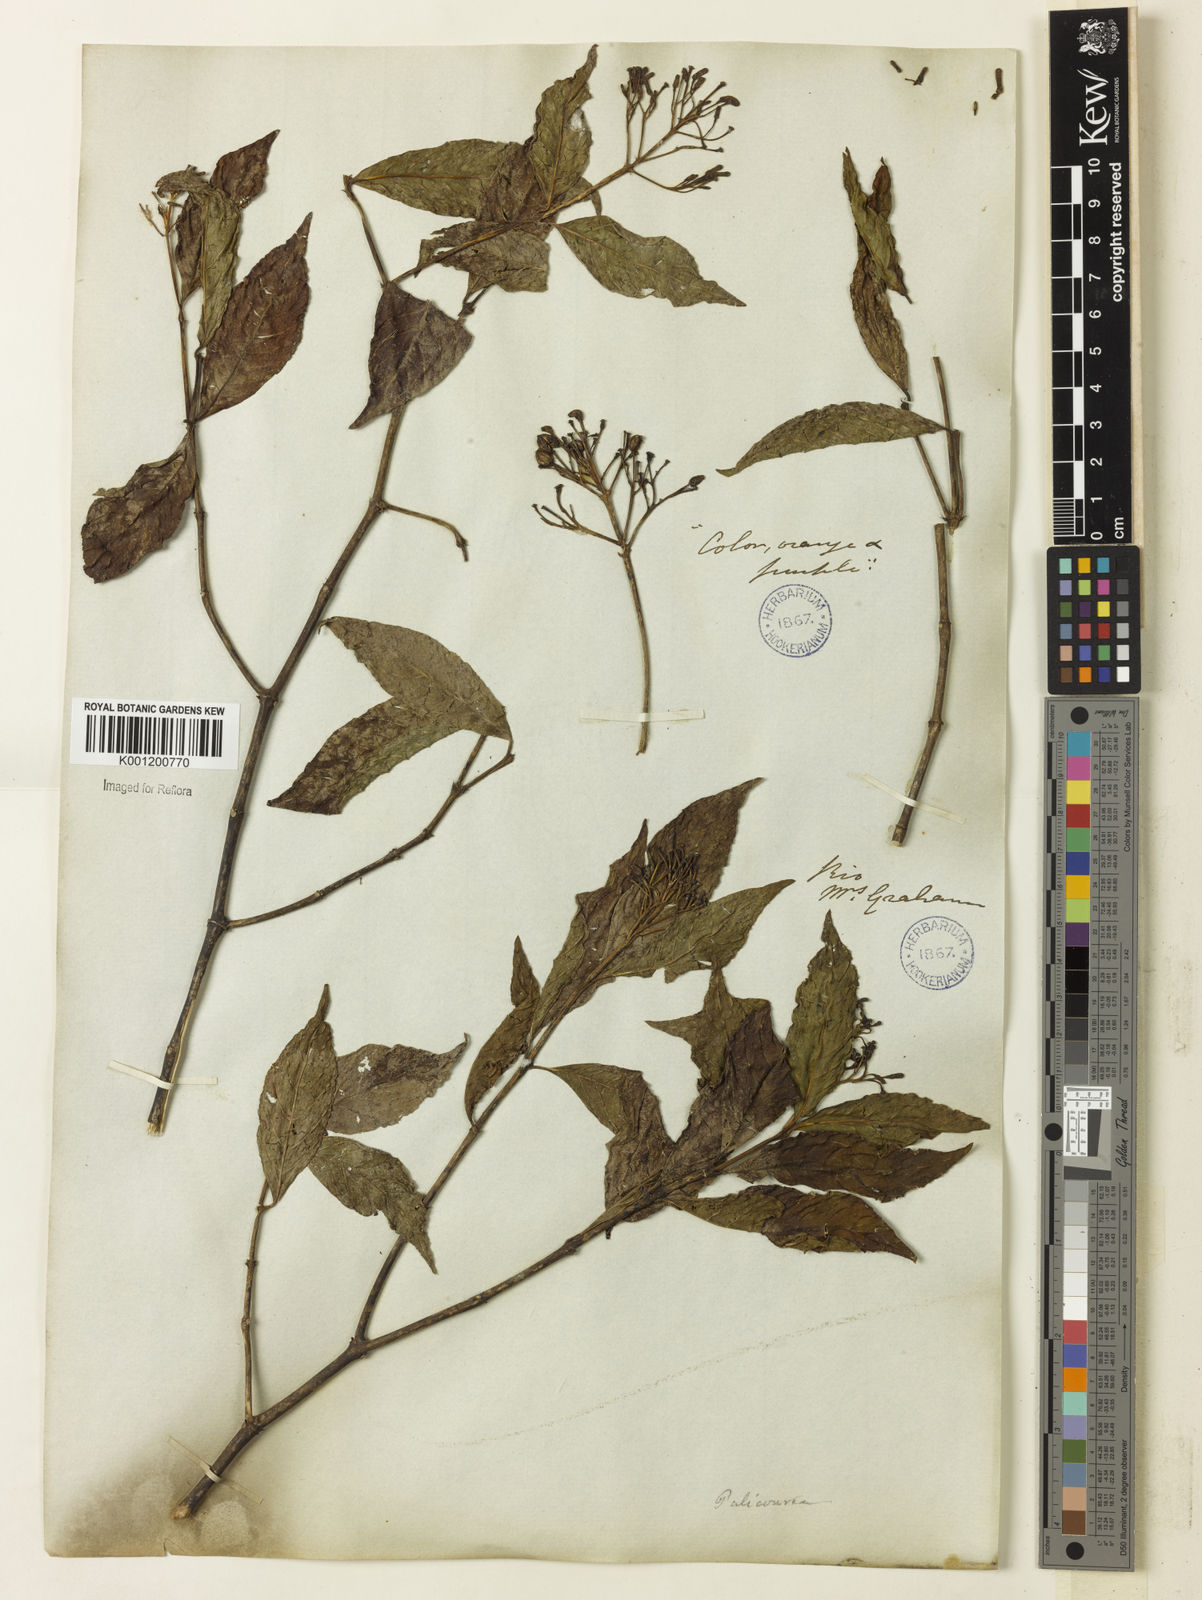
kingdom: Plantae
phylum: Tracheophyta
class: Magnoliopsida
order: Gentianales
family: Rubiaceae
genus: Palicourea
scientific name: Palicourea crocea
